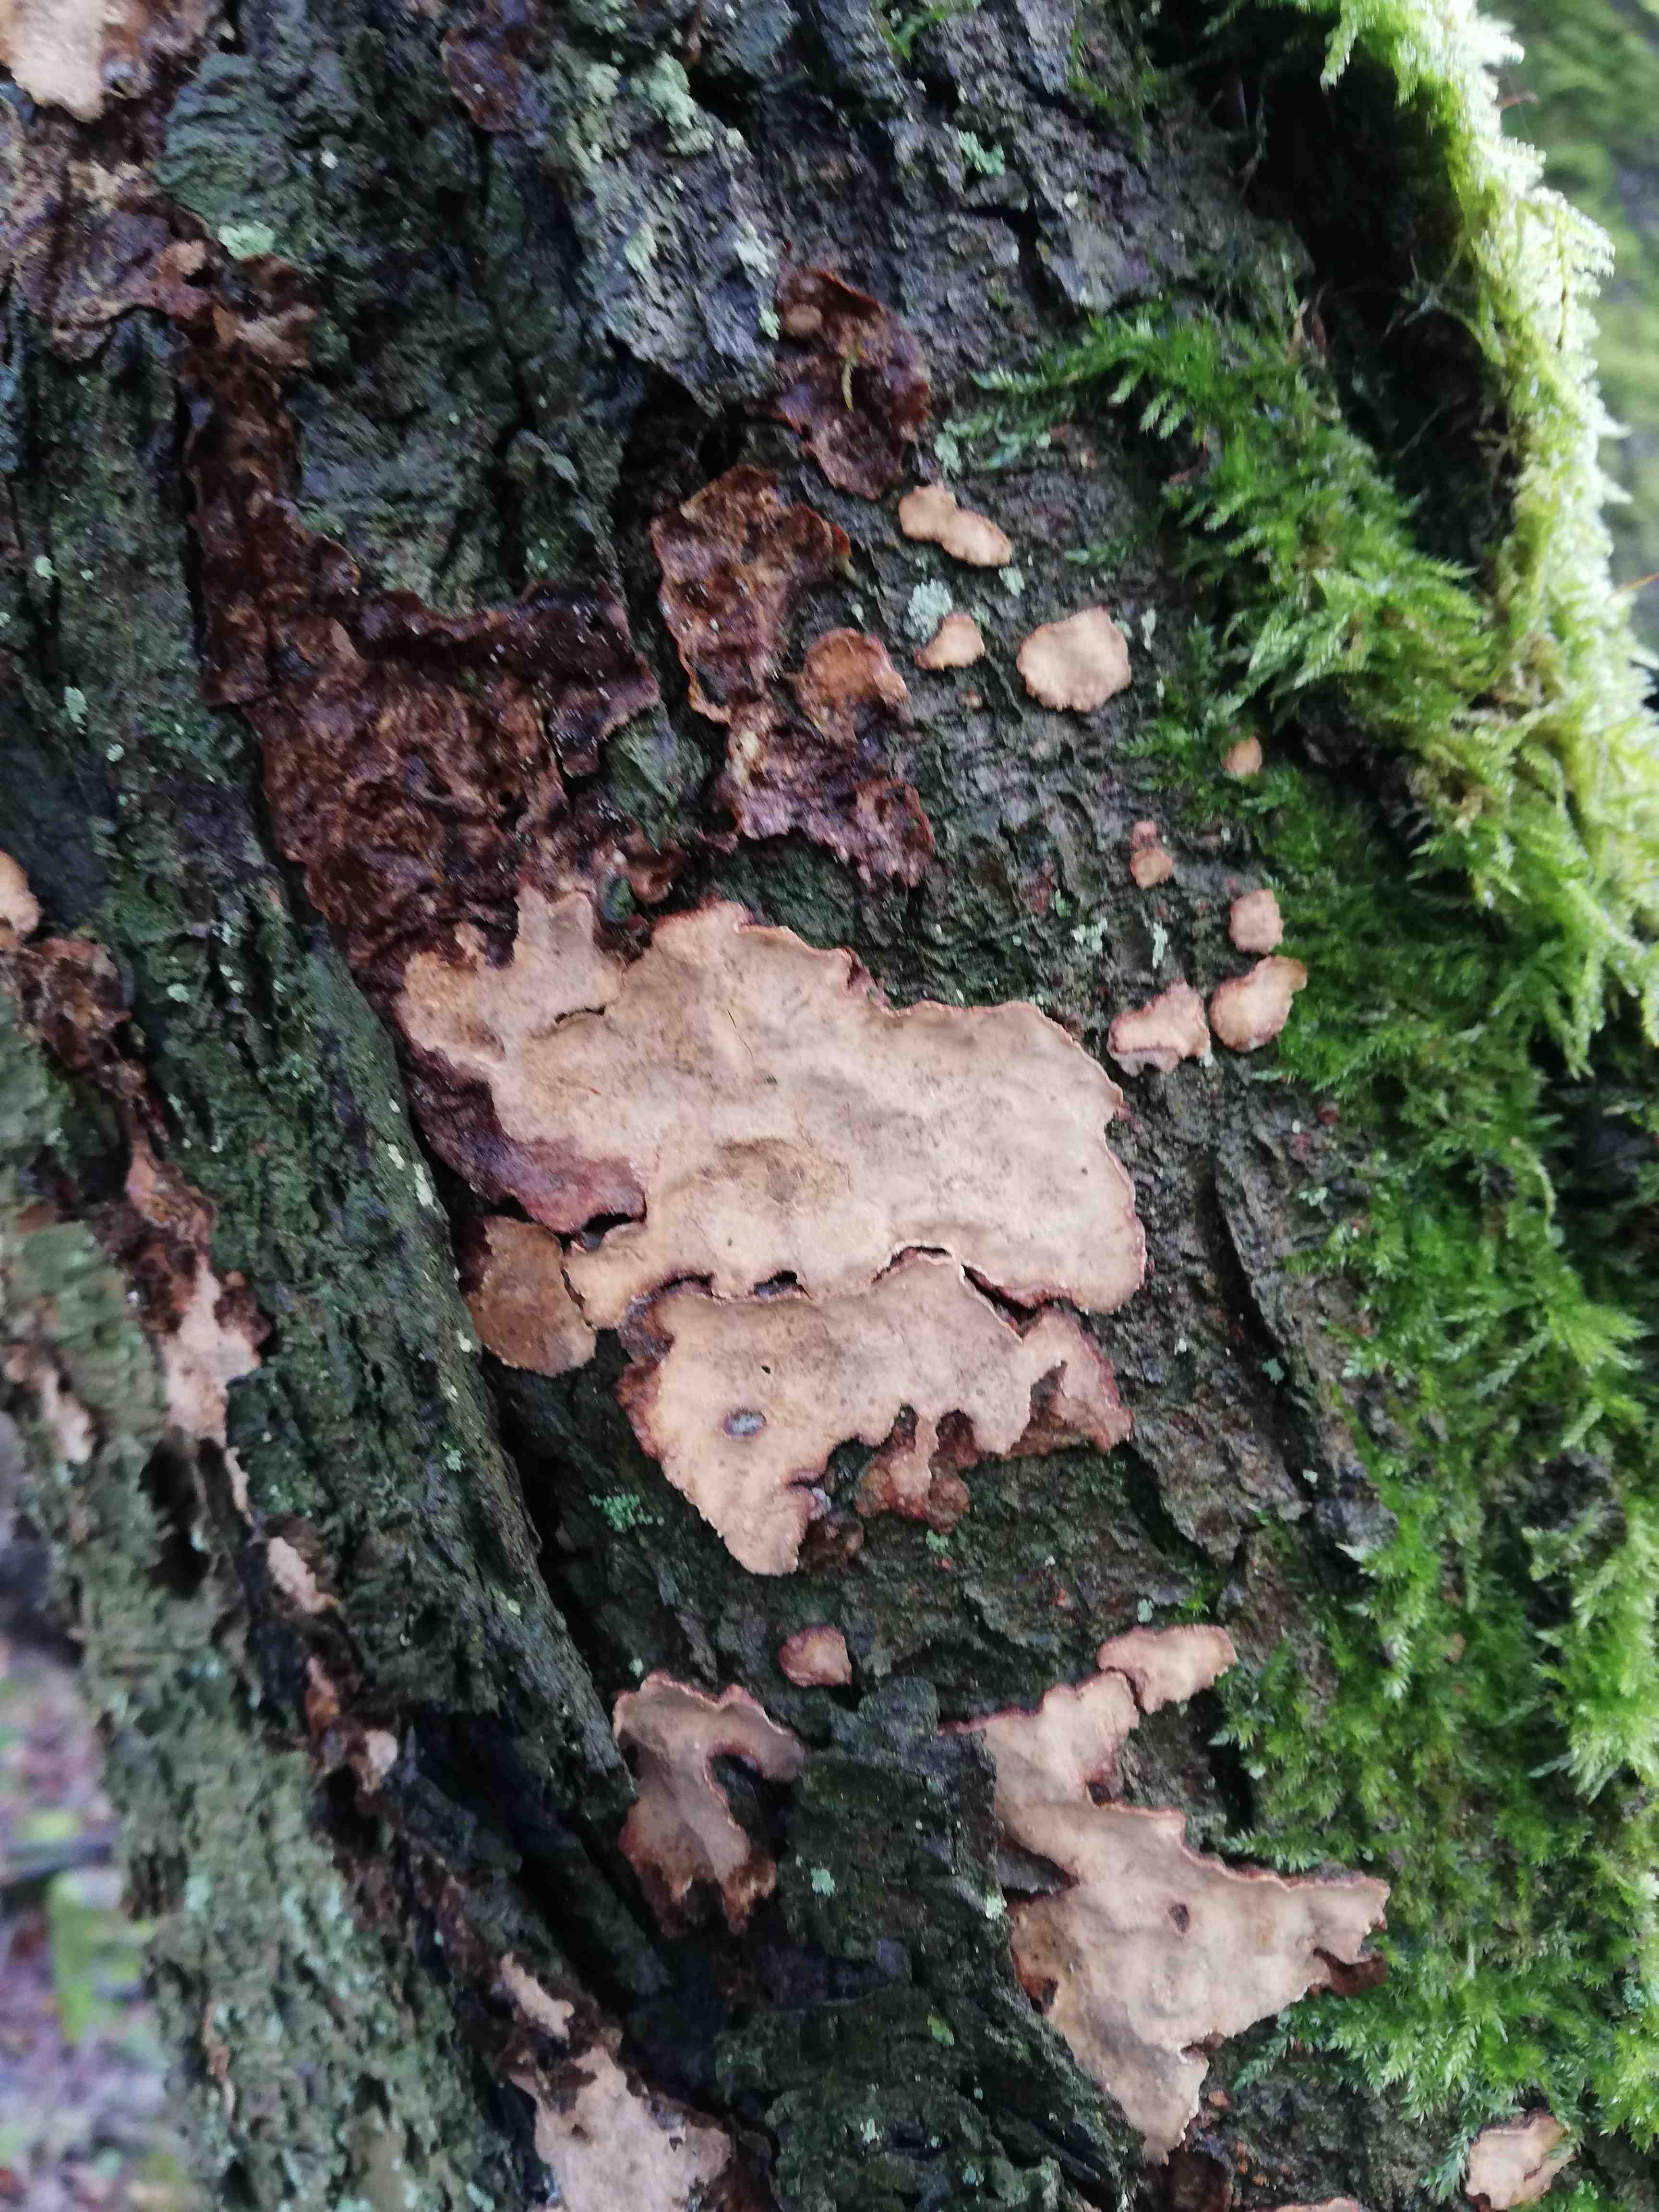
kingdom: Fungi
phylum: Basidiomycota
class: Agaricomycetes
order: Russulales
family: Stereaceae
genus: Stereum
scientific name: Stereum rugosum
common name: rynket lædersvamp
